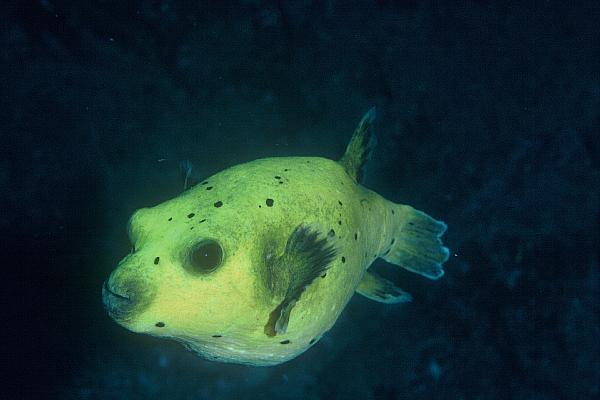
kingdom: Animalia
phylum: Chordata
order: Tetraodontiformes
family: Tetraodontidae
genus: Arothron
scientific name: Arothron nigropunctatus
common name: Black spotted blow fish
